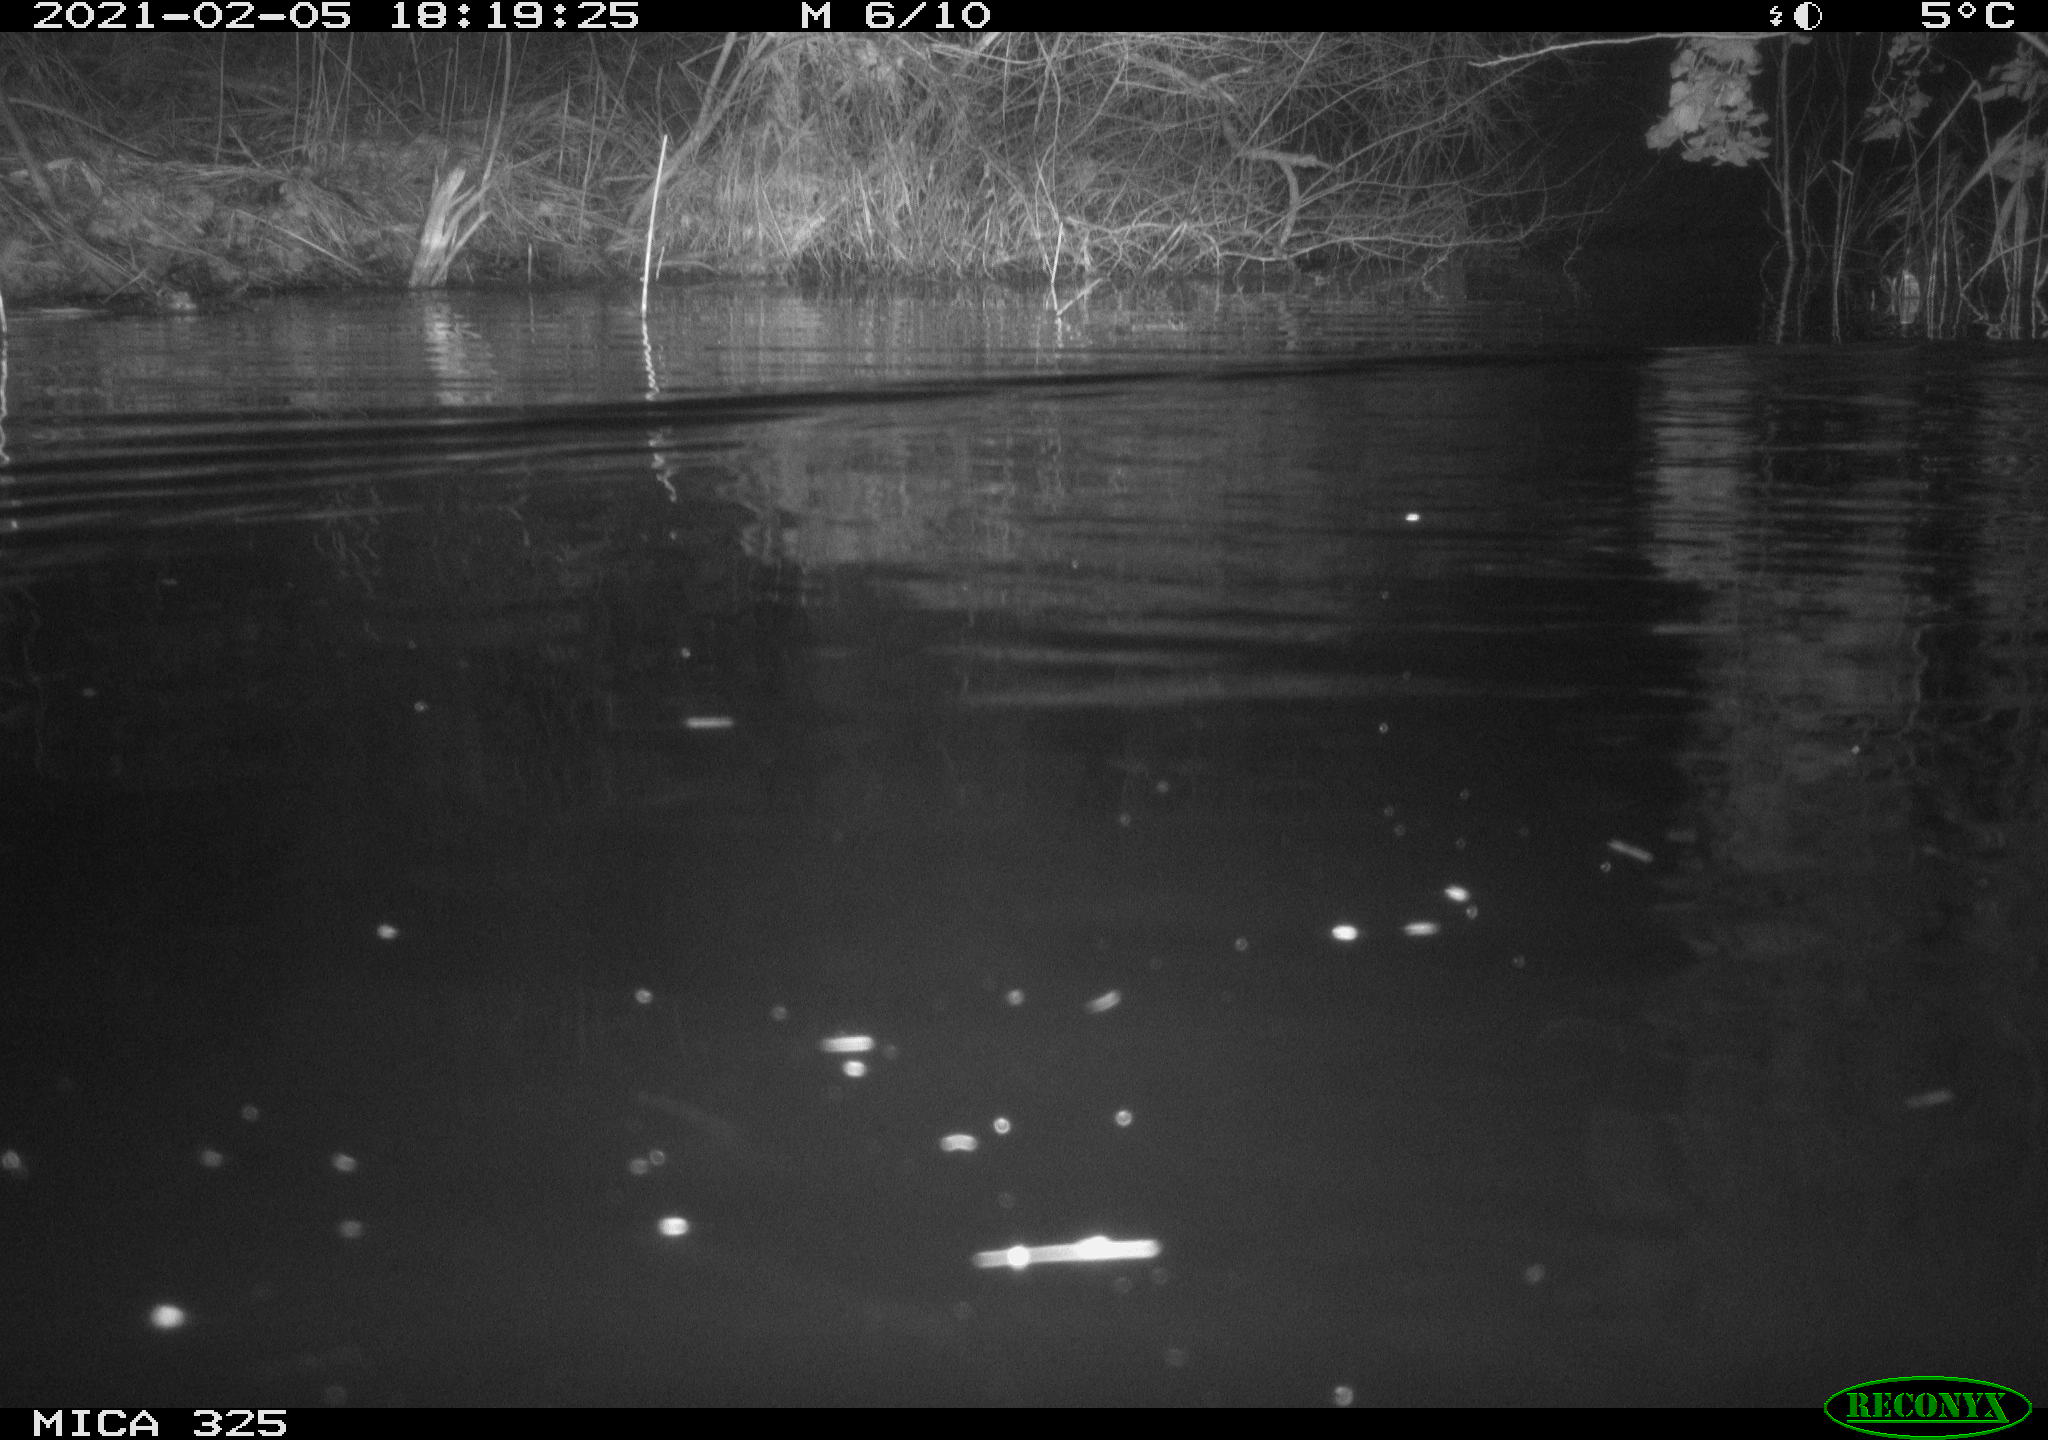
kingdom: Animalia
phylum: Chordata
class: Mammalia
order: Rodentia
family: Myocastoridae
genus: Myocastor
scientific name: Myocastor coypus
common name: Coypu
